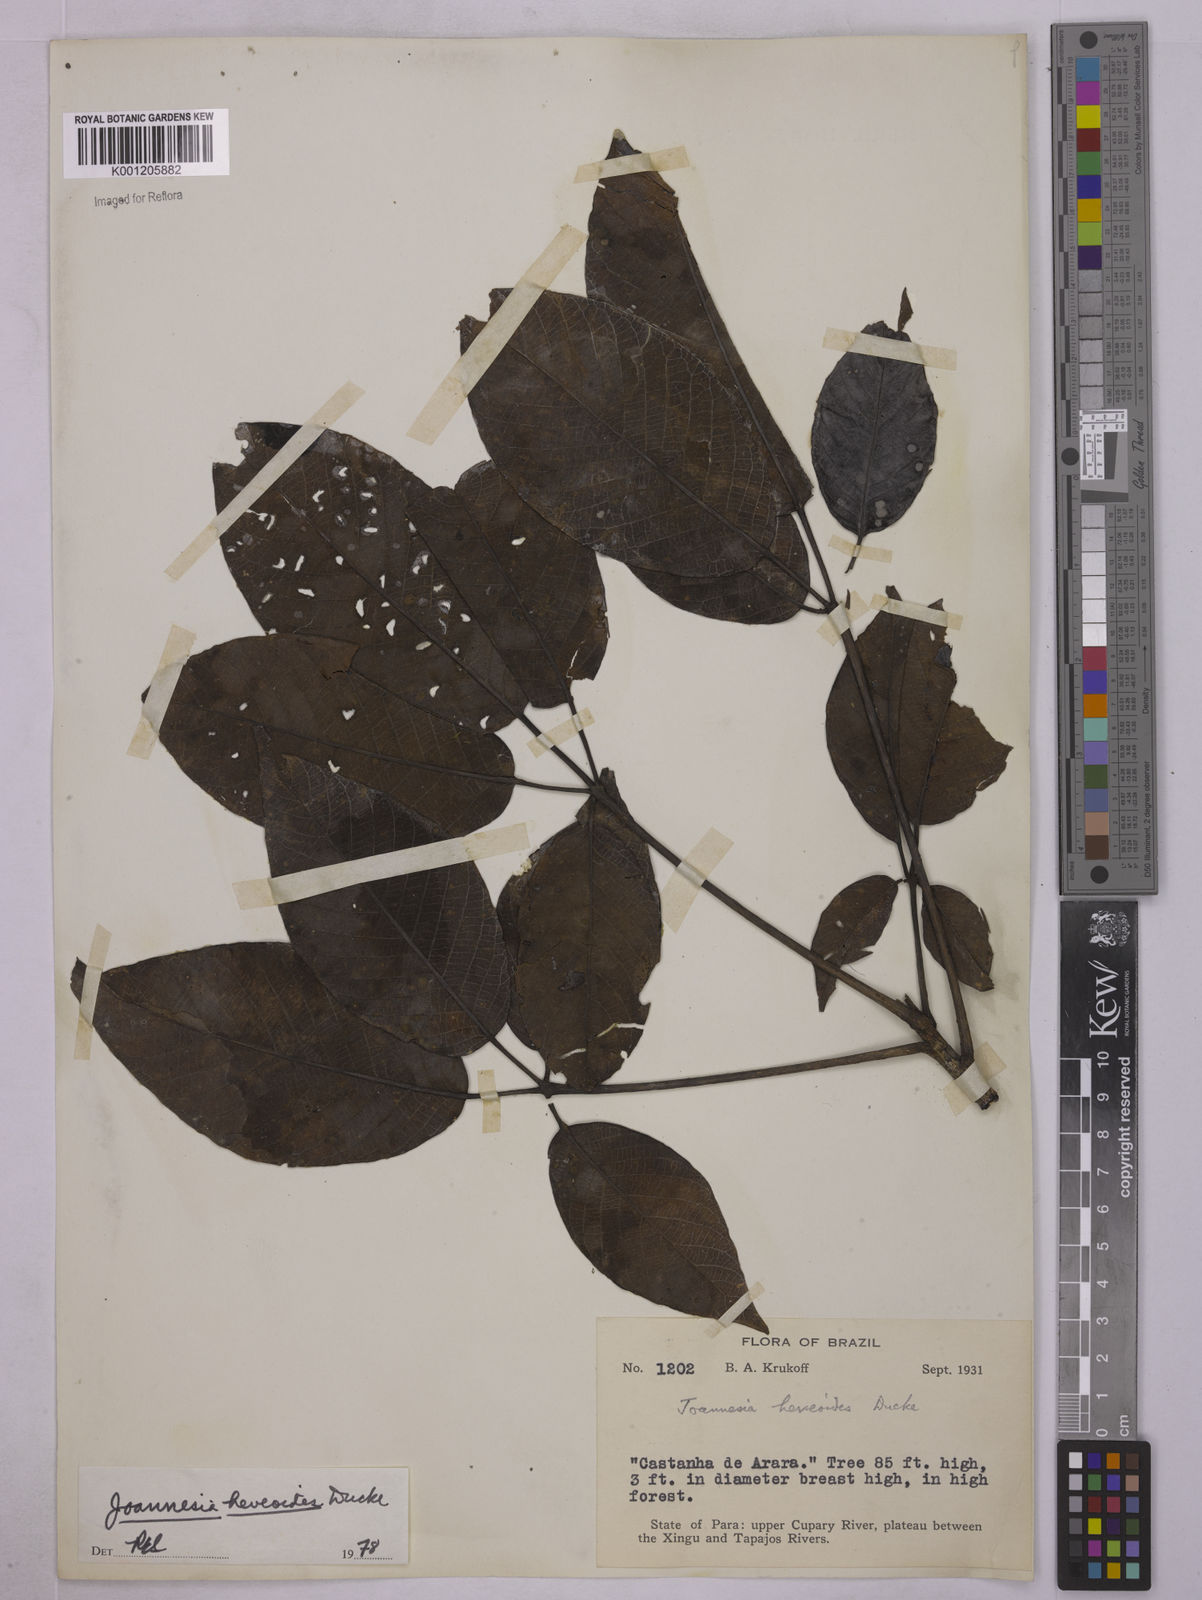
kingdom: Plantae
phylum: Tracheophyta
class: Magnoliopsida
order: Malpighiales
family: Euphorbiaceae
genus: Joannesia
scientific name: Joannesia heveoides
